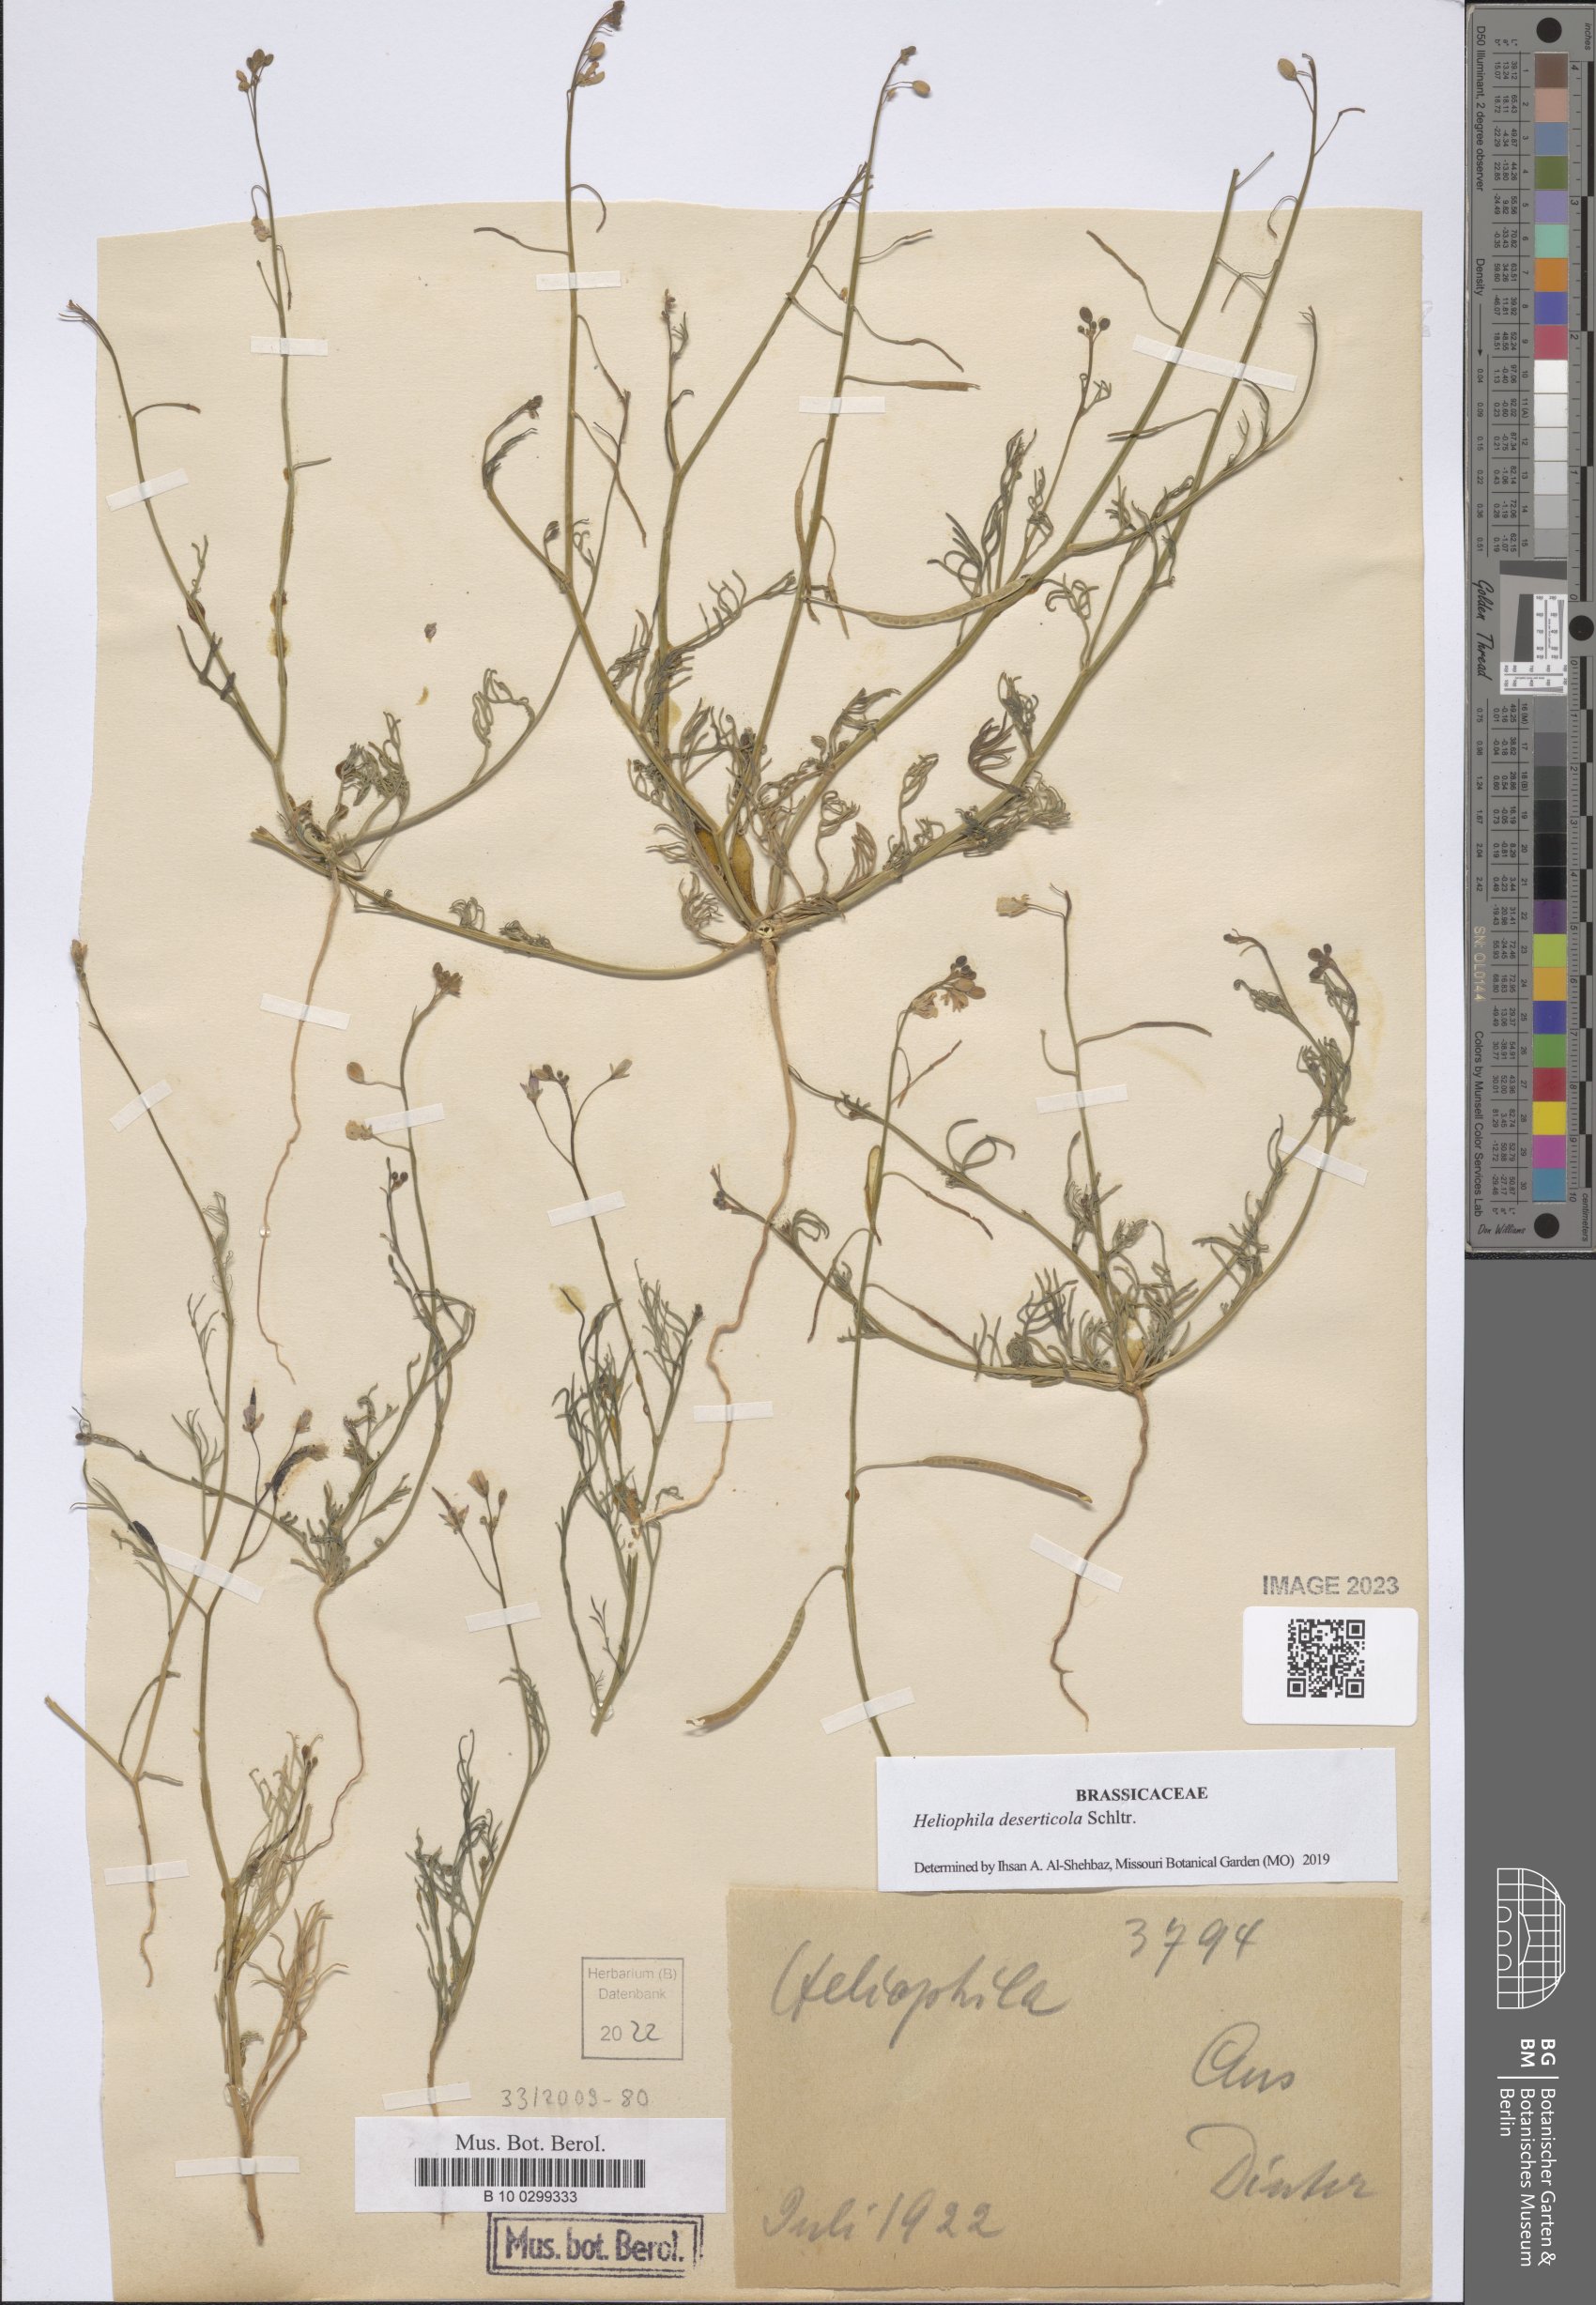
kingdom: Plantae
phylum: Tracheophyta
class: Magnoliopsida
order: Brassicales
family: Brassicaceae
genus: Heliophila
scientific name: Heliophila deserticola
